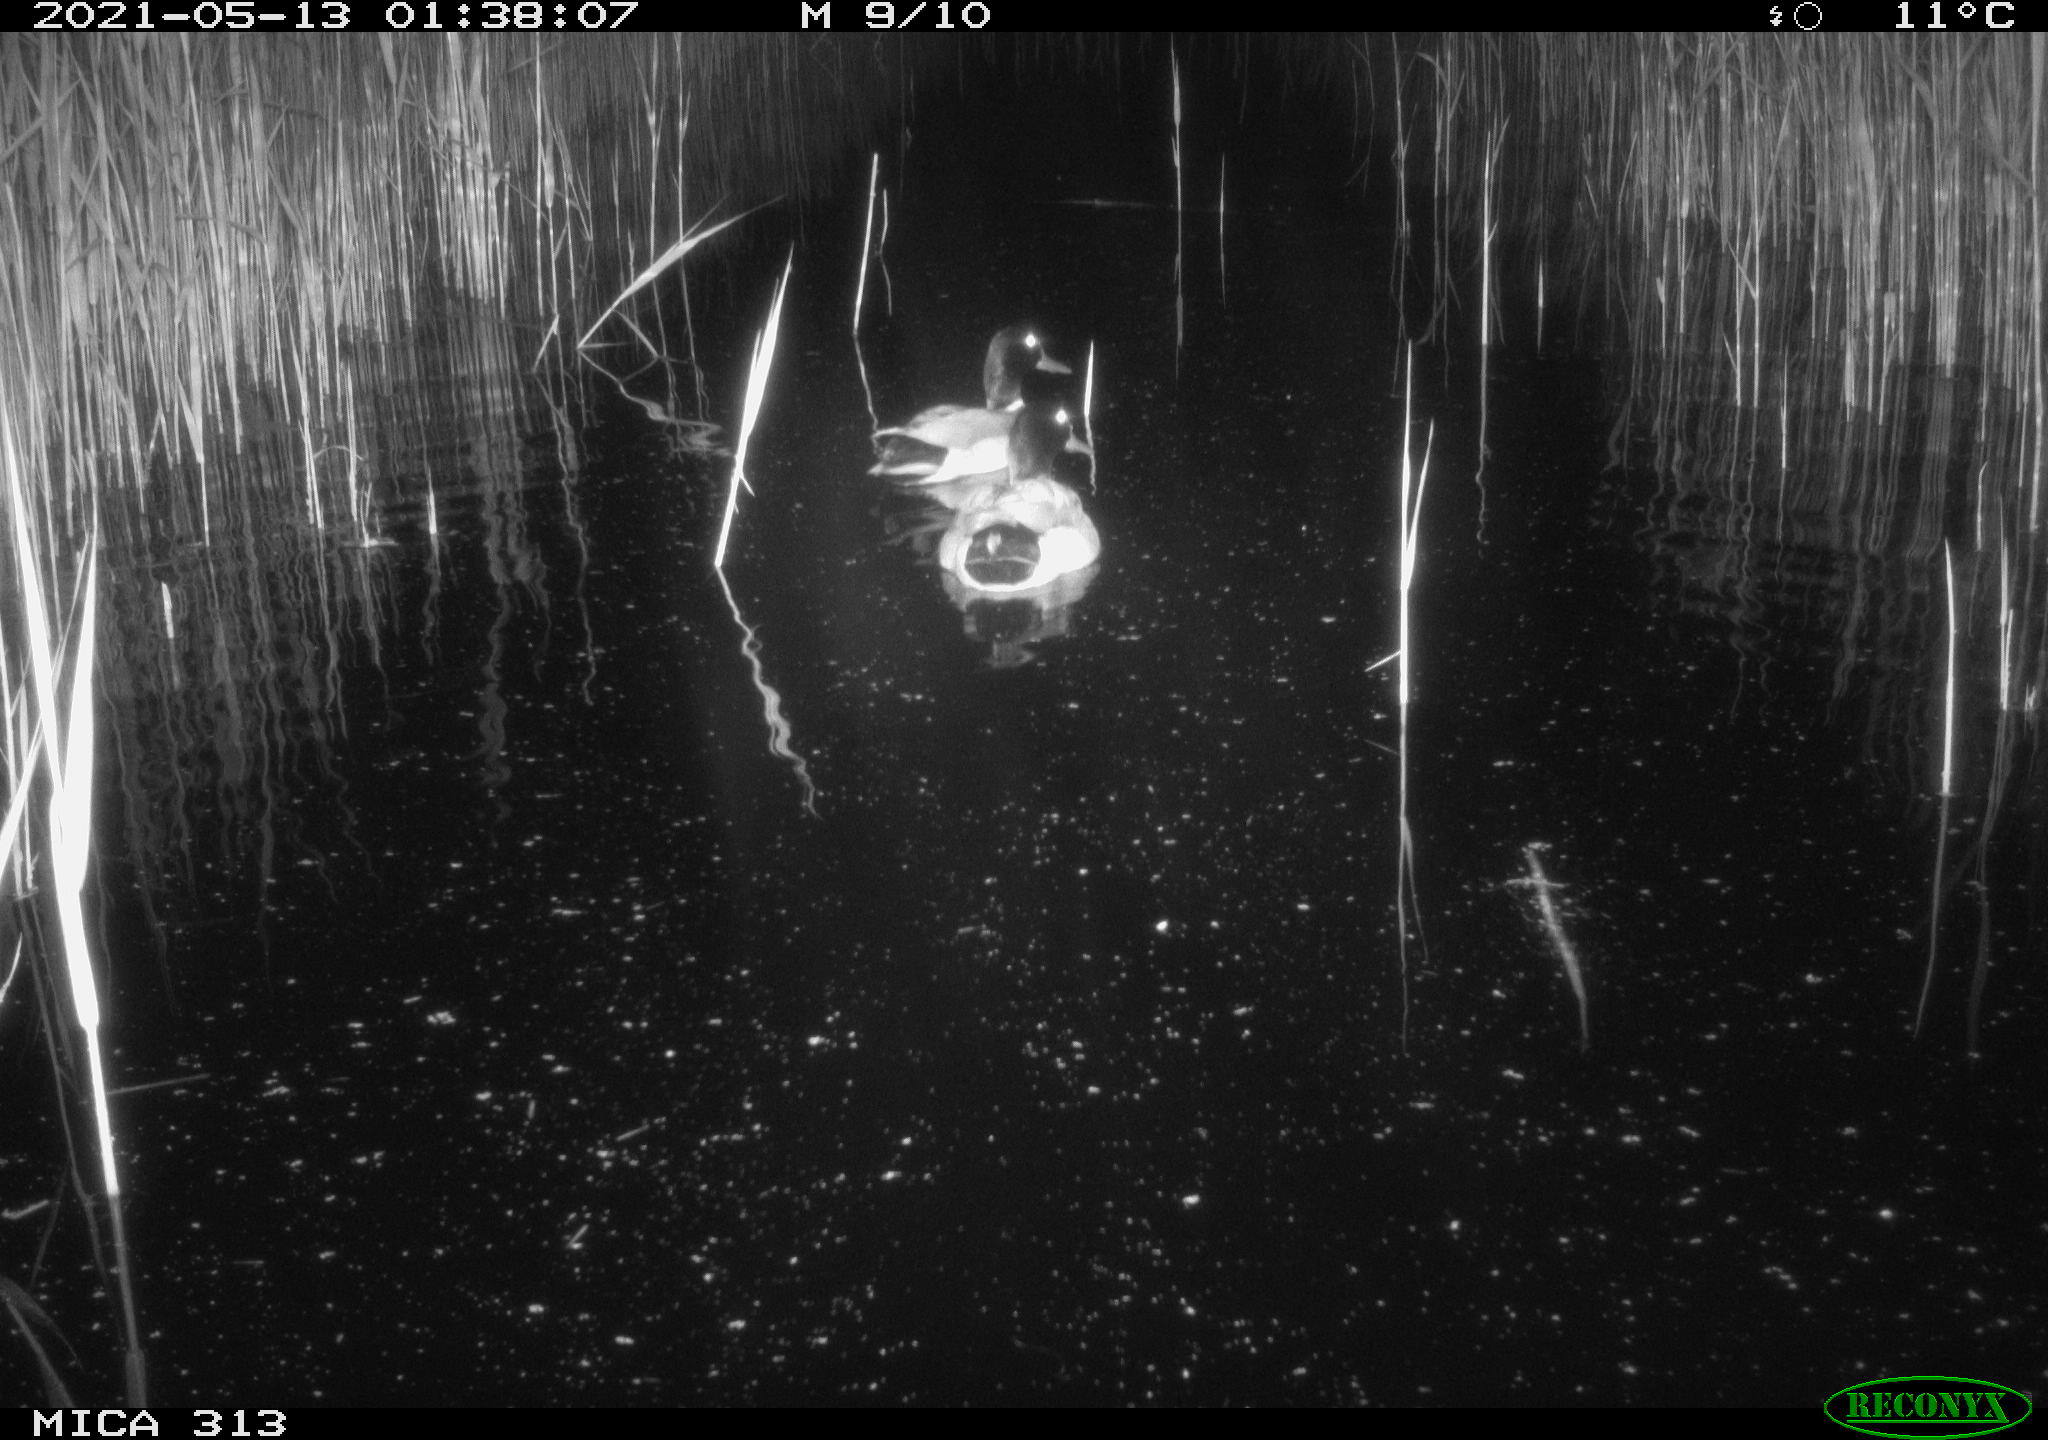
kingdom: Animalia
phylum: Chordata
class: Aves
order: Anseriformes
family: Anatidae
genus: Anas
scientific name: Anas platyrhynchos
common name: Mallard
